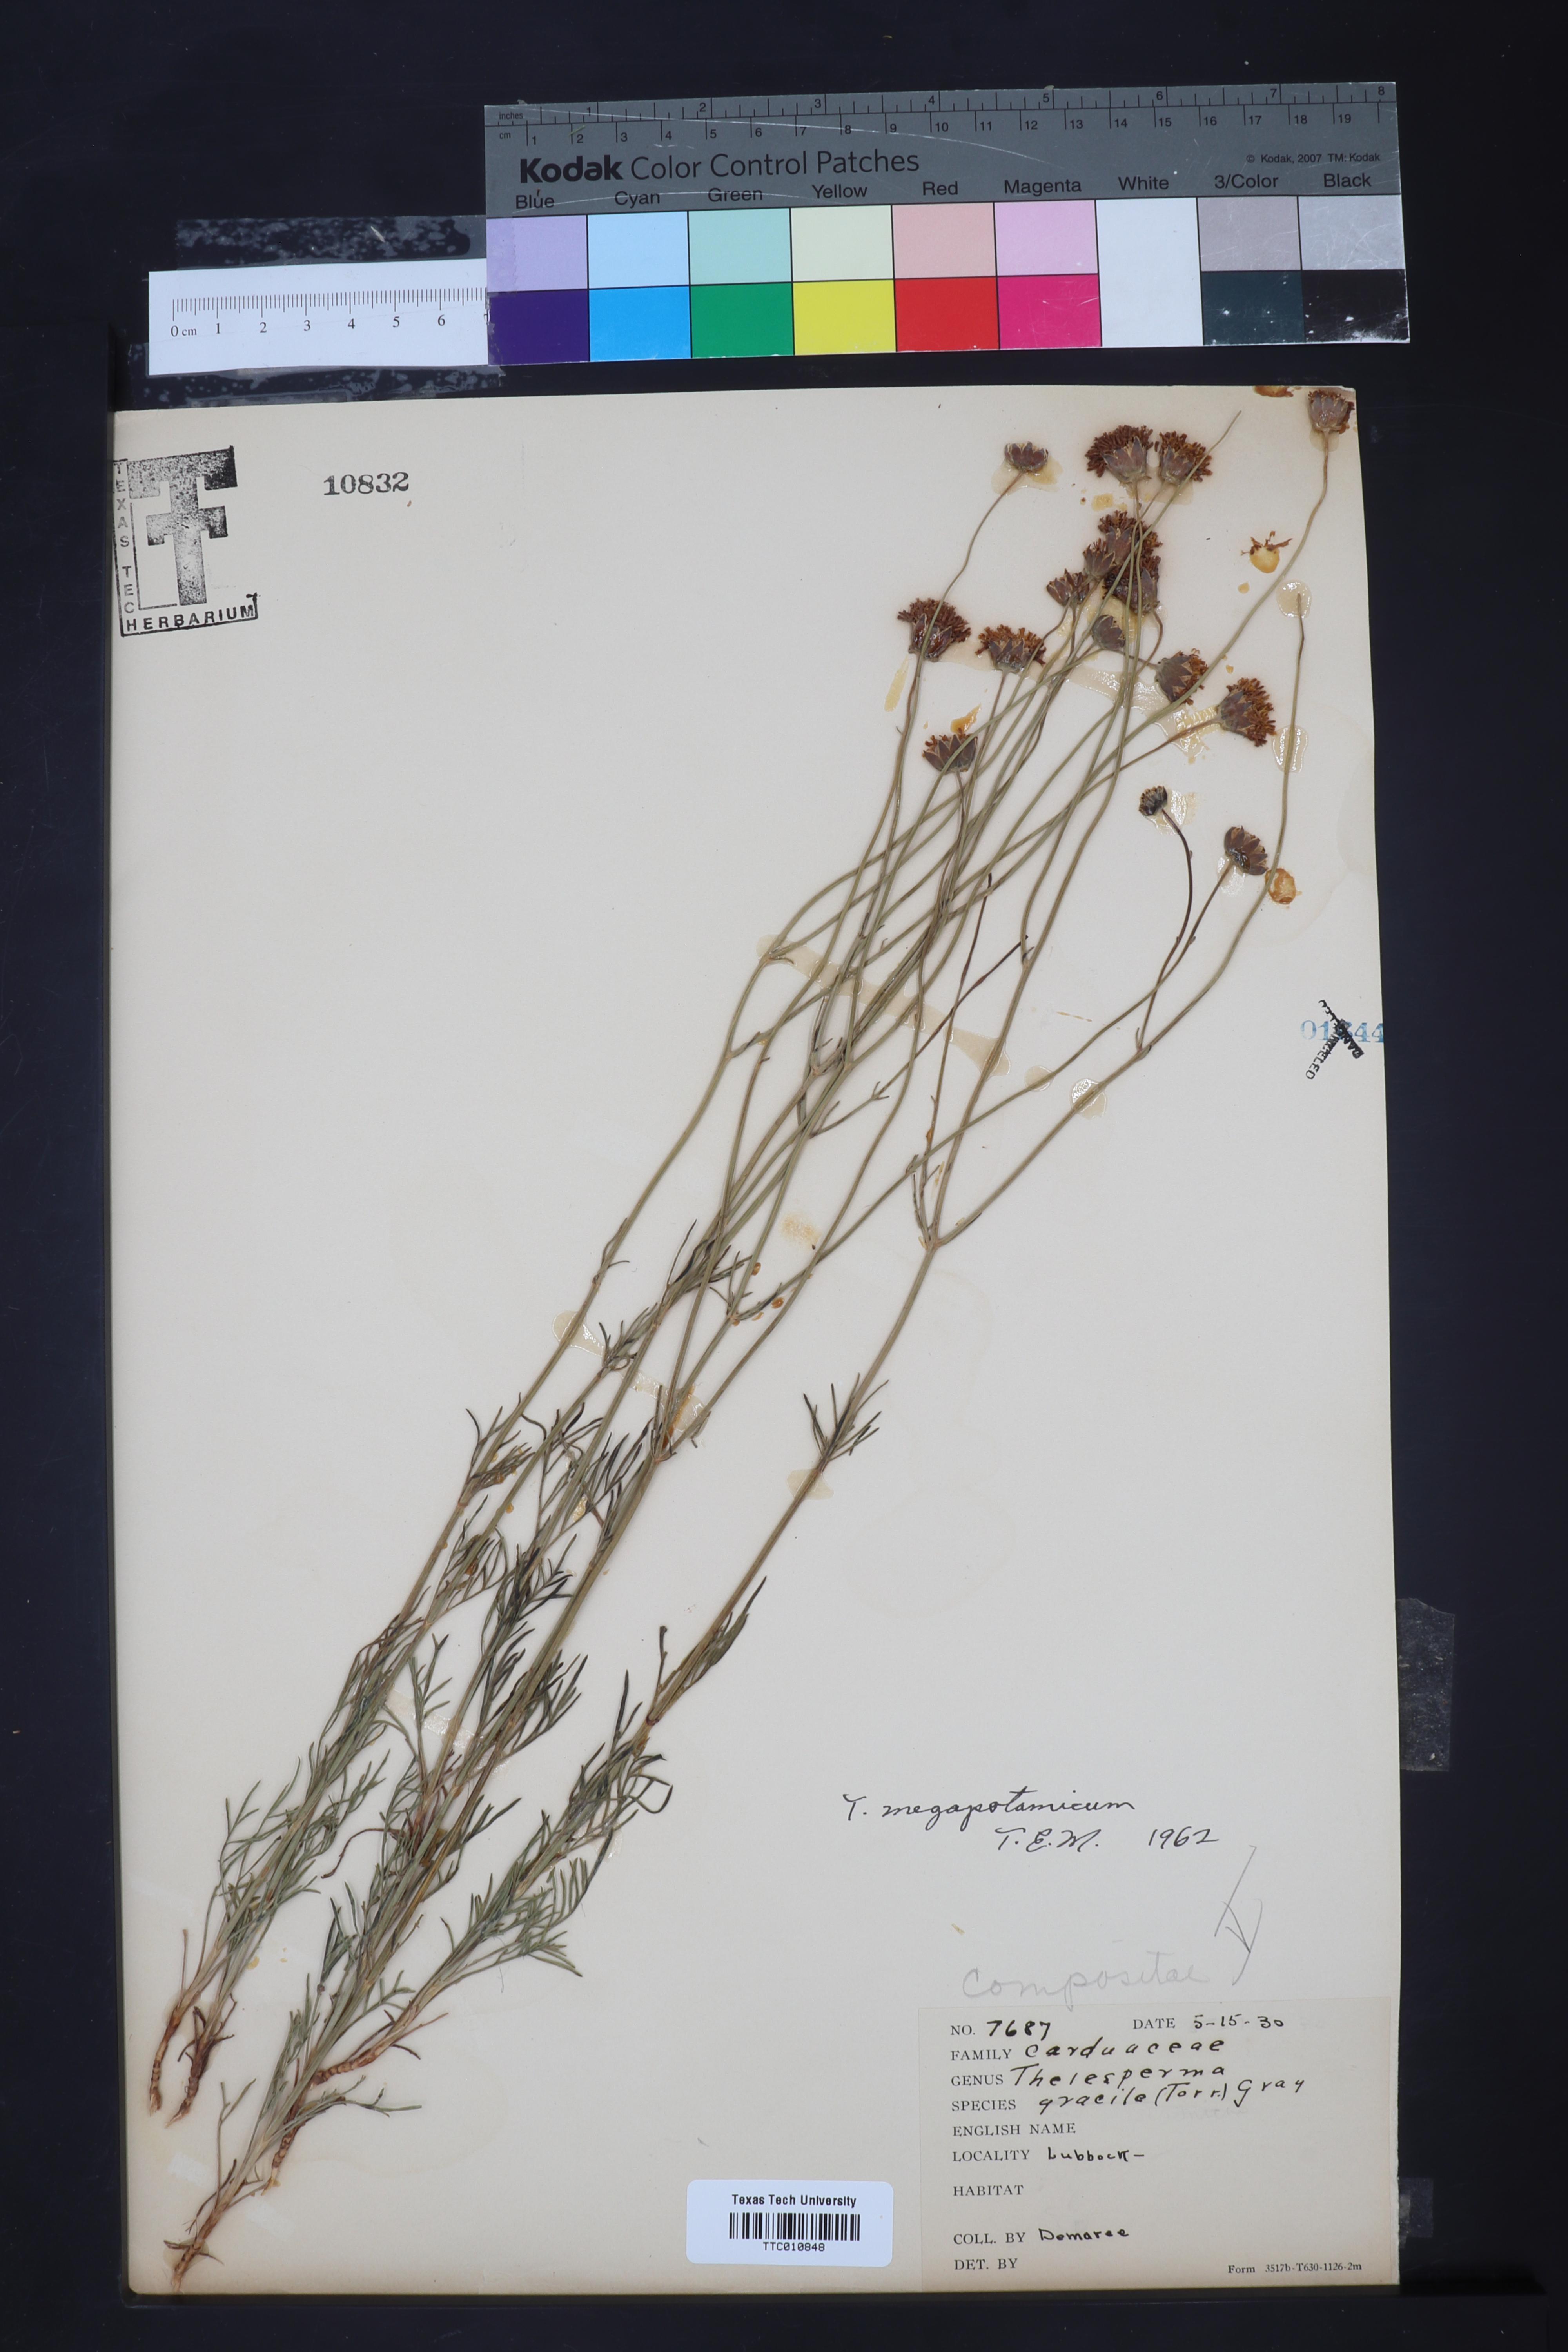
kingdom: Plantae
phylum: Tracheophyta
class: Magnoliopsida
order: Asterales
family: Asteraceae
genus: Thelesperma
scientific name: Thelesperma megapotamicum
